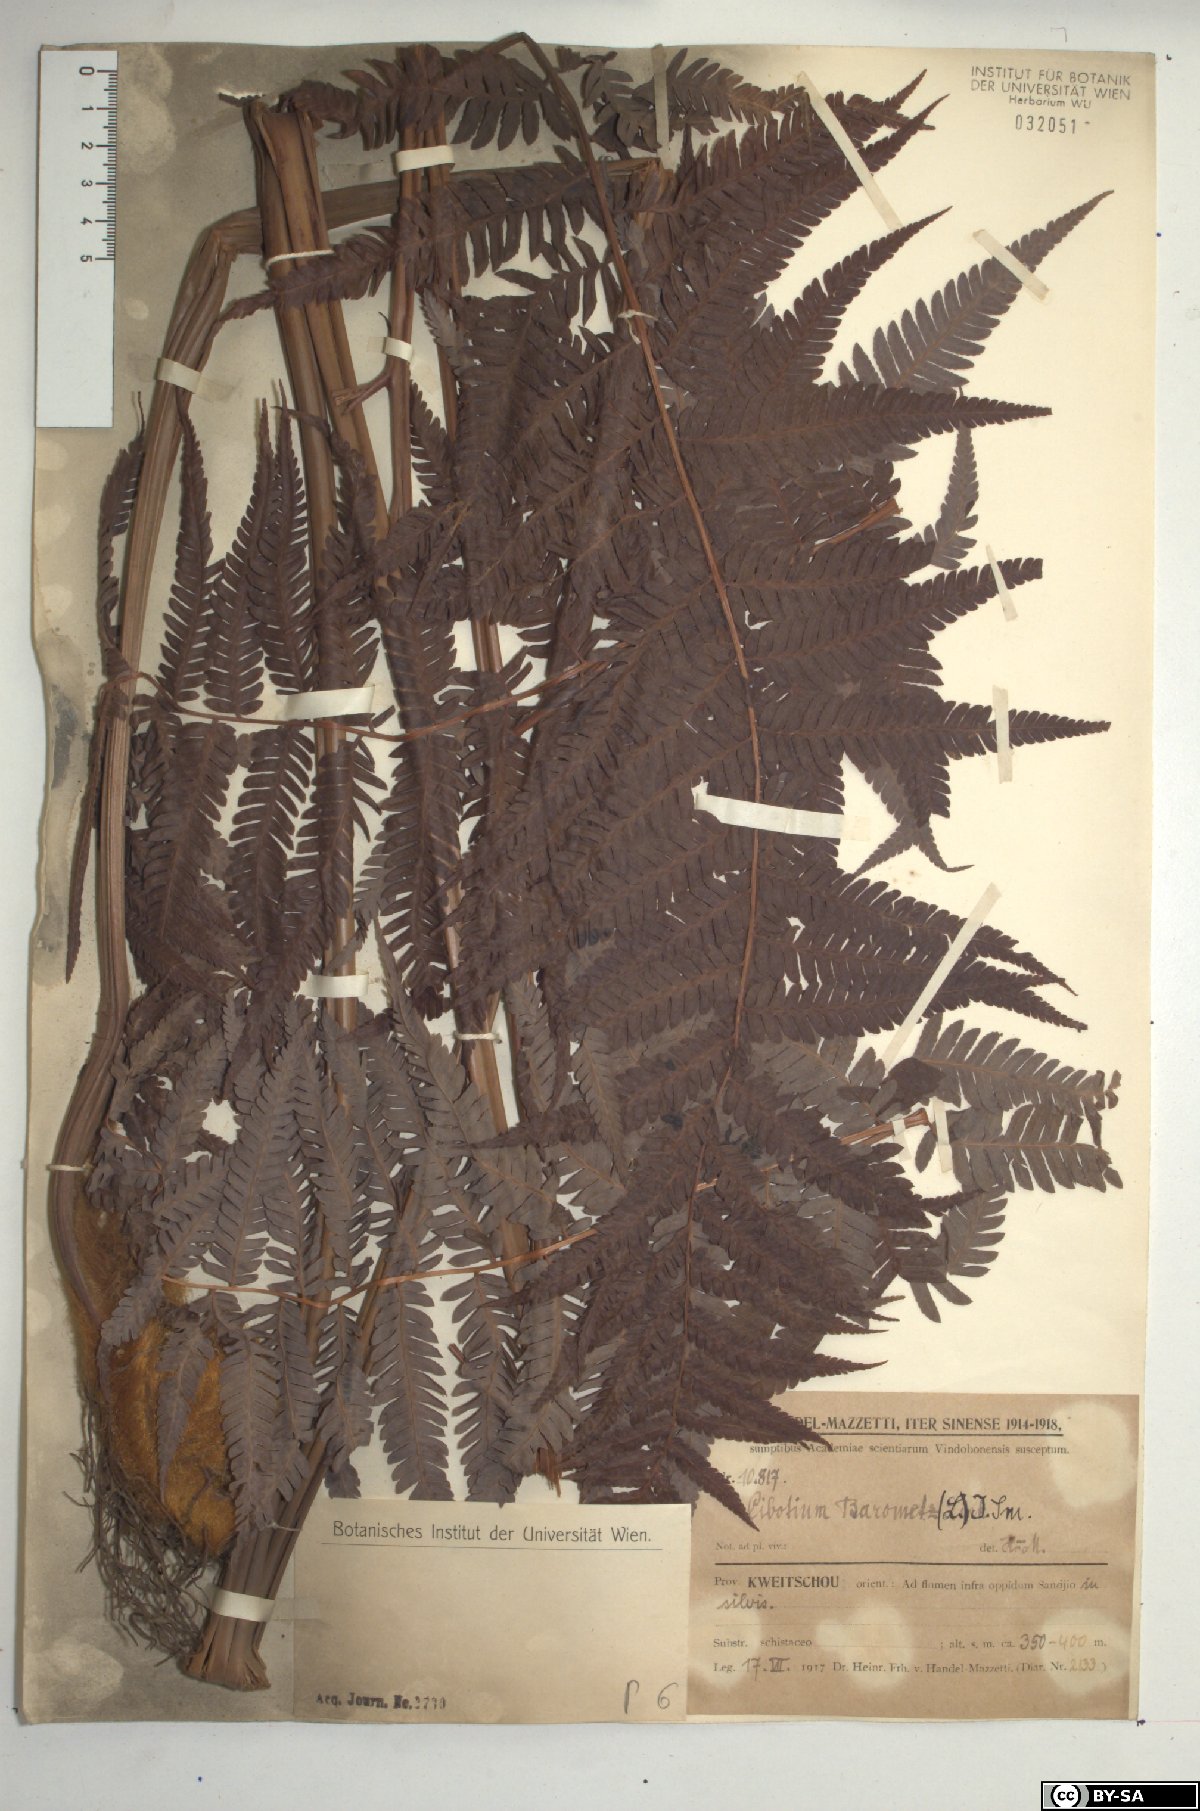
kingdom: Plantae
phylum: Tracheophyta
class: Polypodiopsida
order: Cyatheales
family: Cibotiaceae
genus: Cibotium
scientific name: Cibotium barometz
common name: Scythian-lamb
